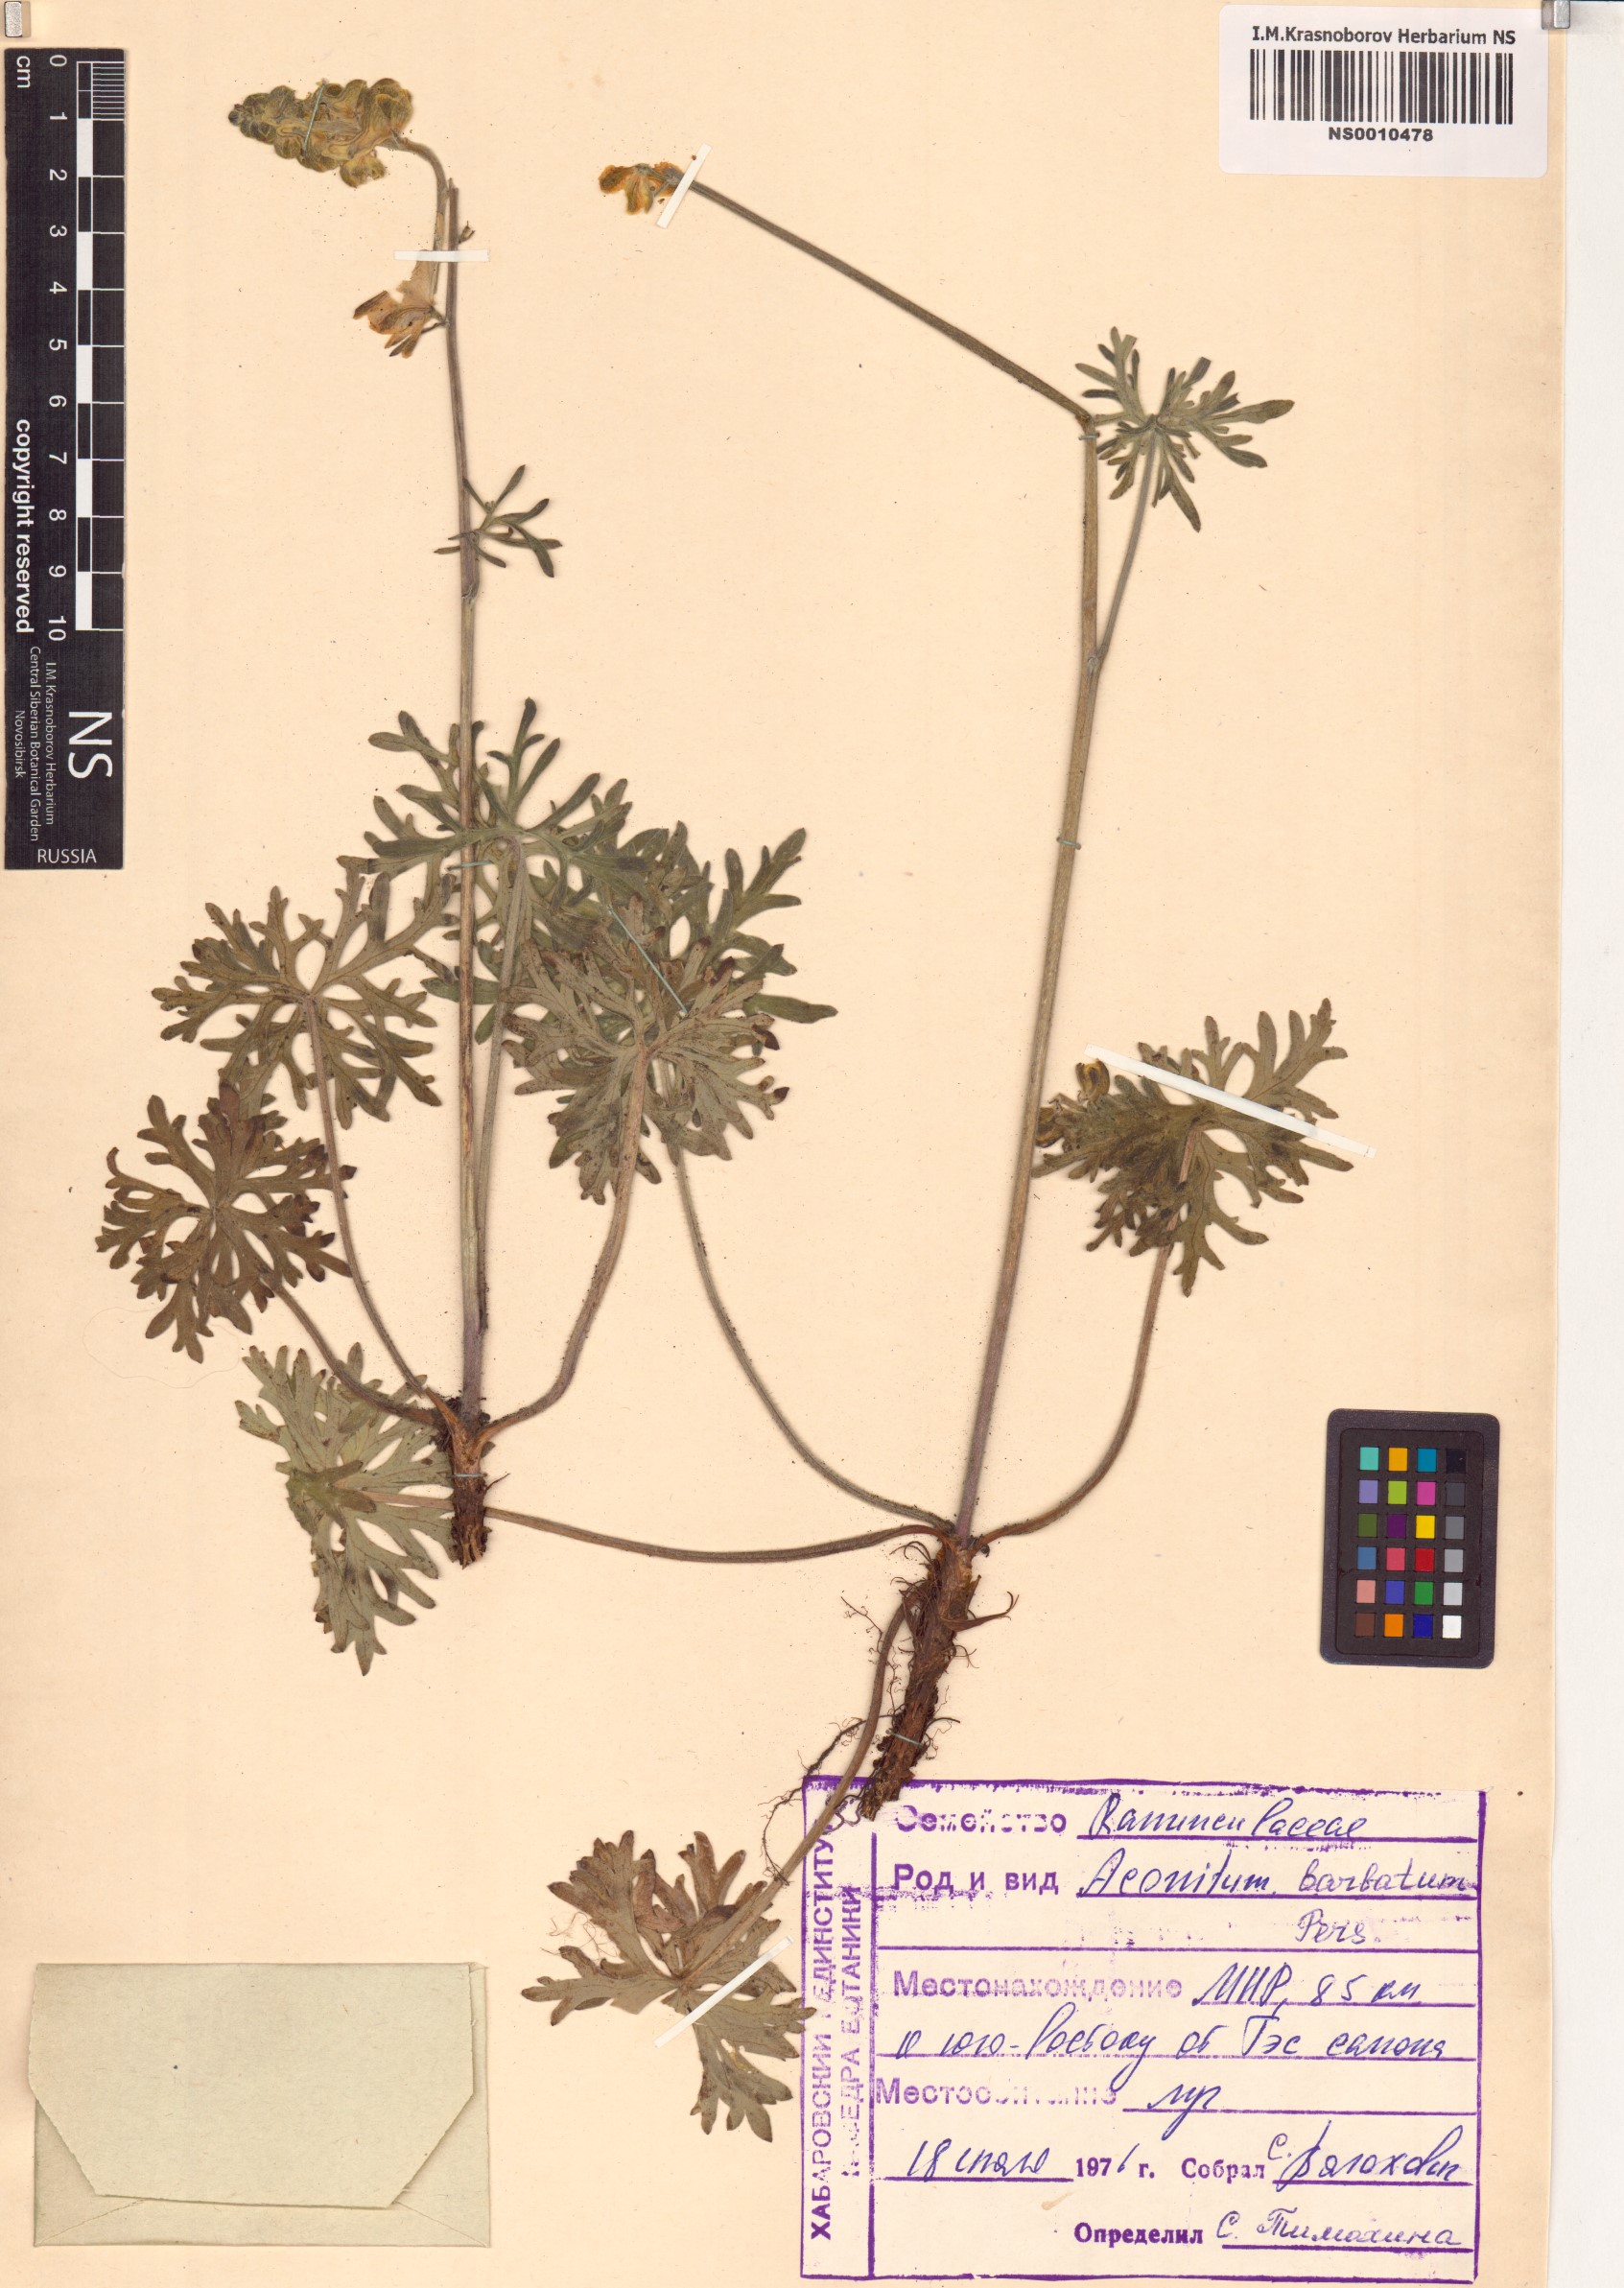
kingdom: Plantae
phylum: Tracheophyta
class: Magnoliopsida
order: Ranunculales
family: Ranunculaceae
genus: Aconitum
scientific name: Aconitum barbatum
